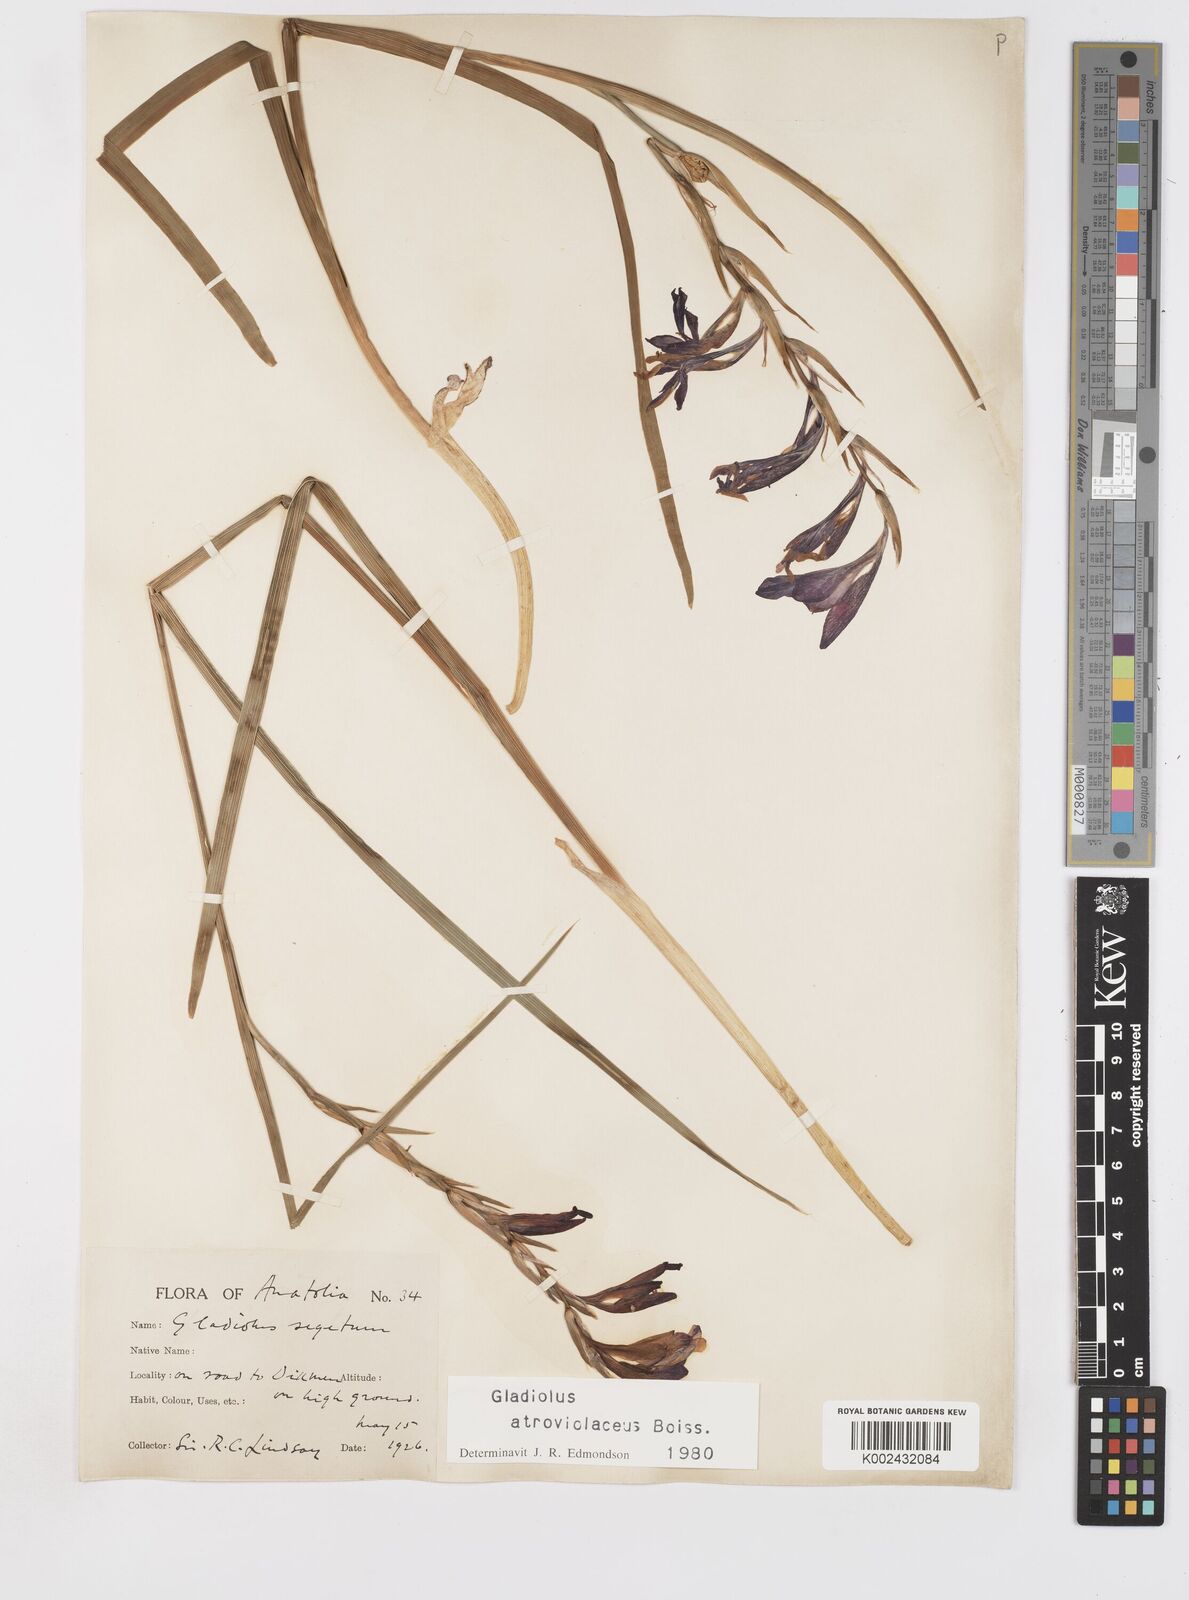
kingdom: Plantae
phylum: Tracheophyta
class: Liliopsida
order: Asparagales
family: Iridaceae
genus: Gladiolus
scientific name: Gladiolus atroviolaceus
